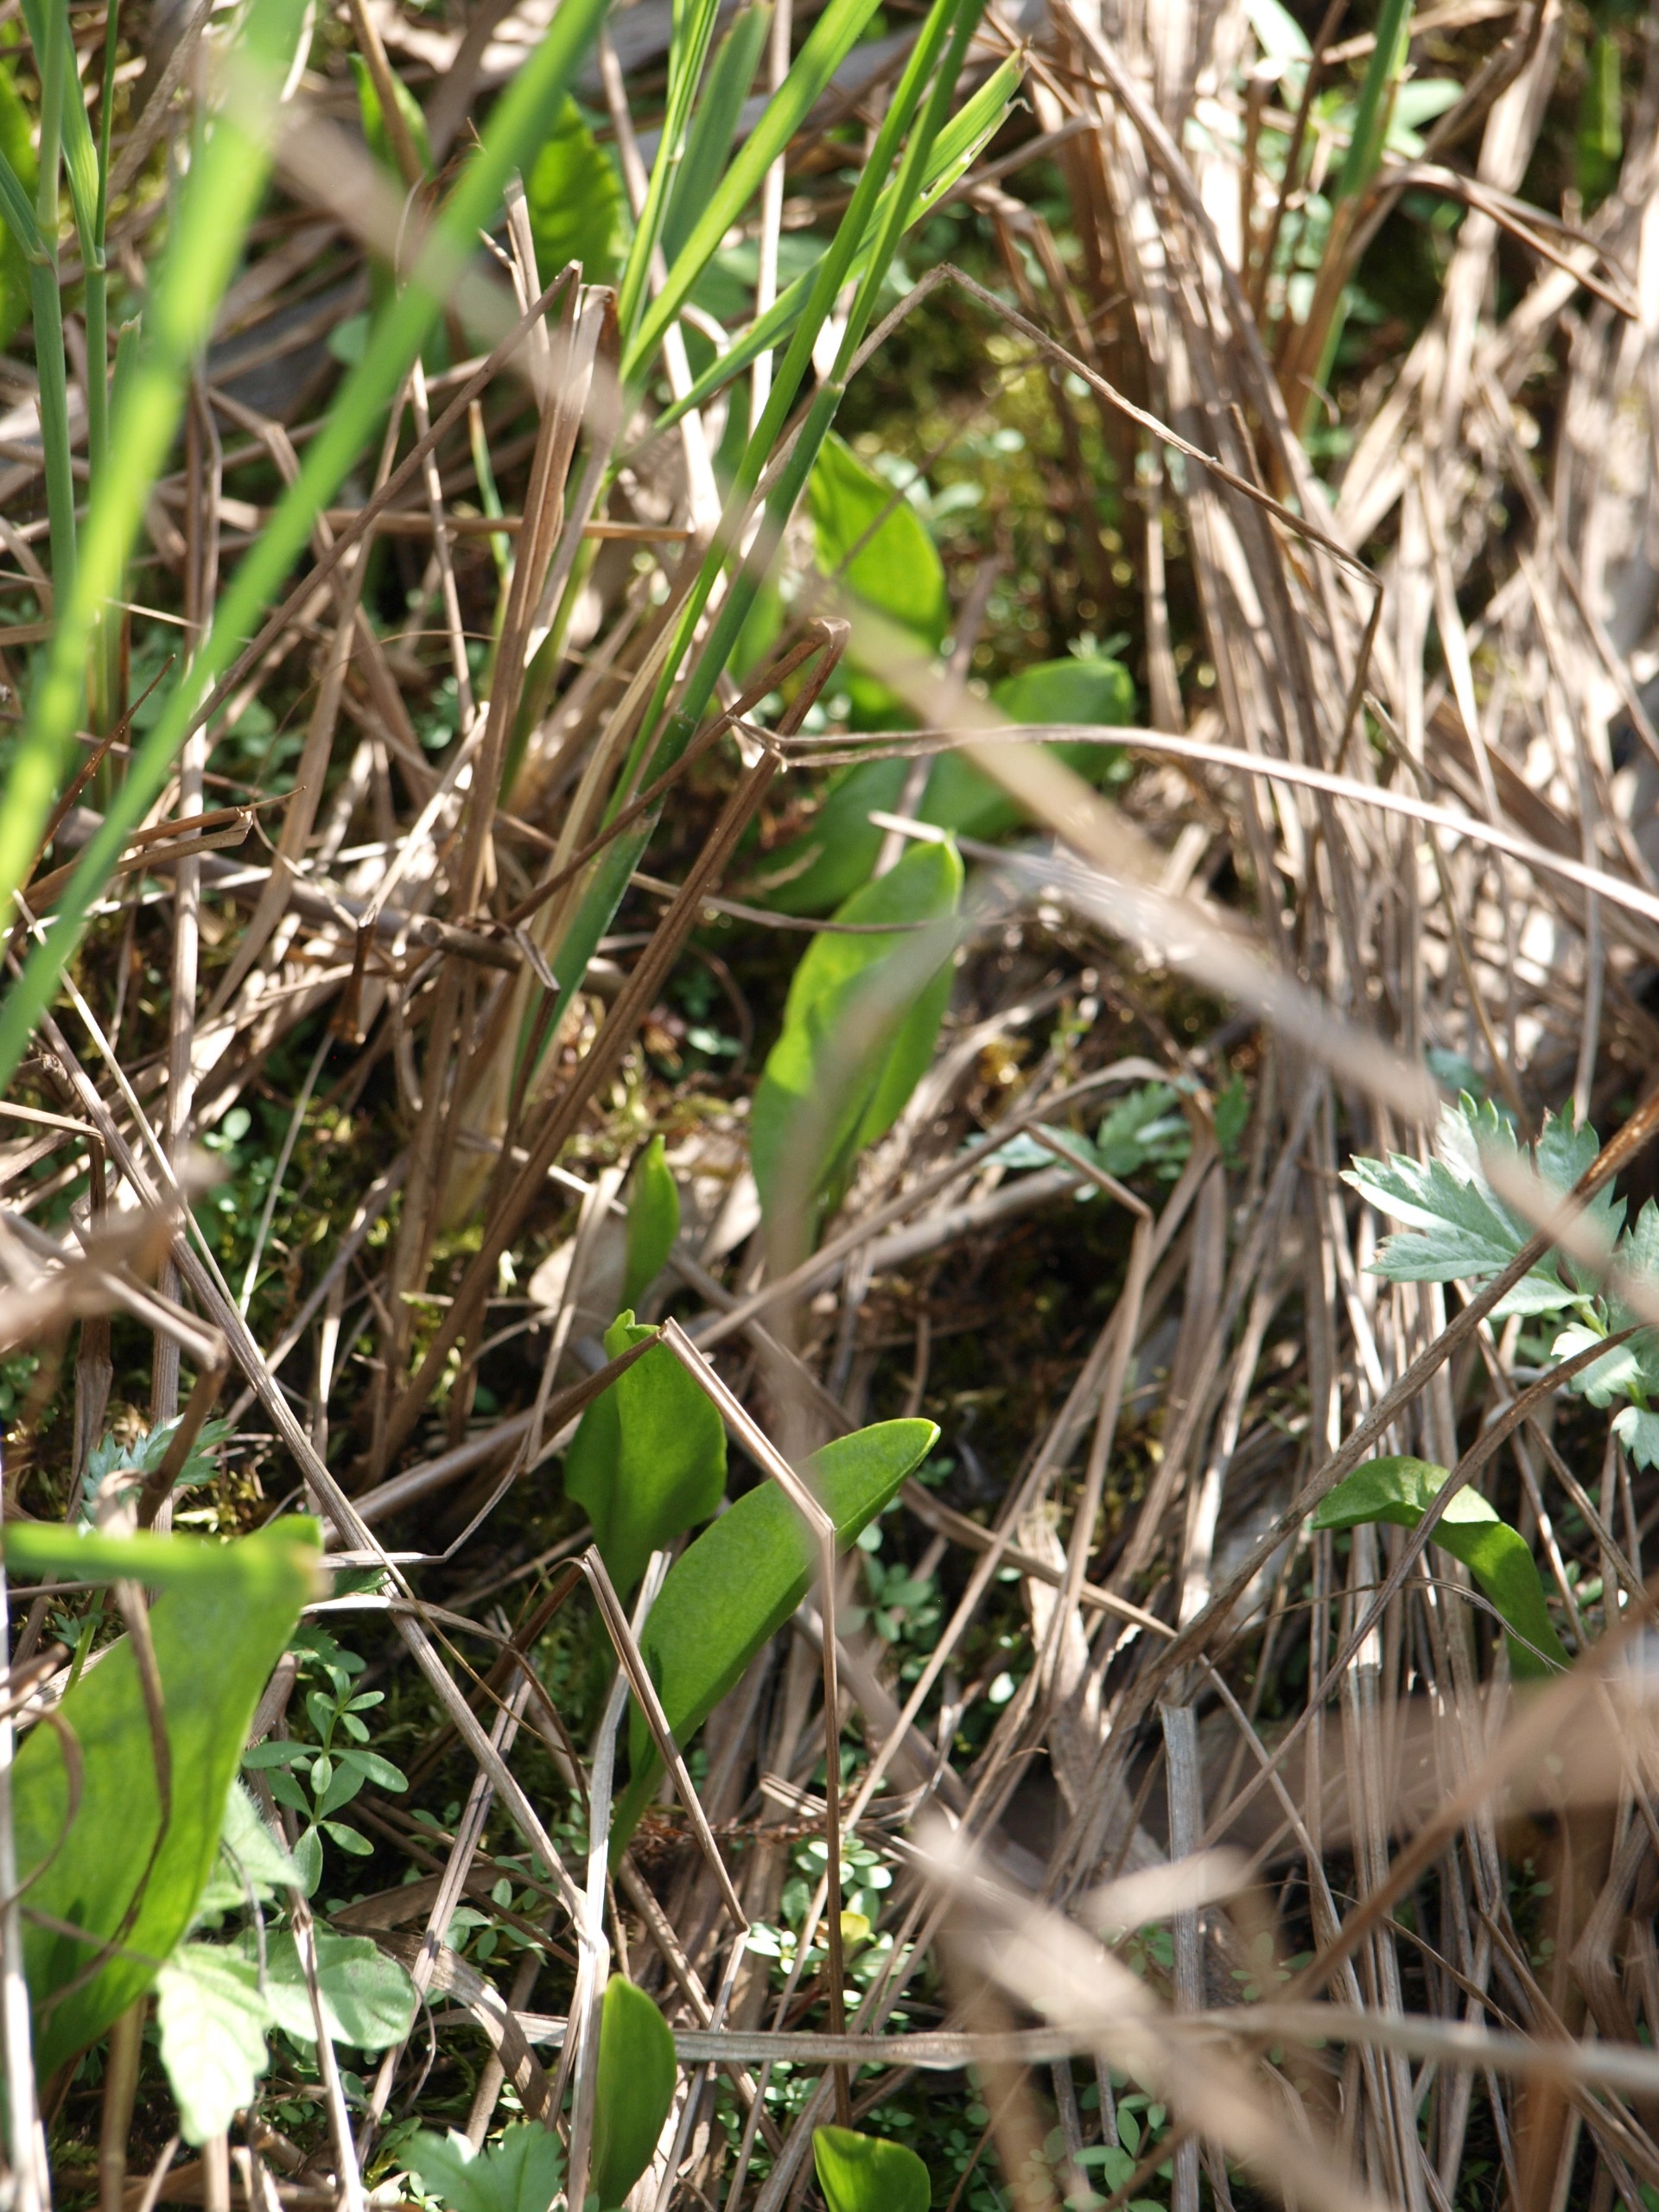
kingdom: Plantae
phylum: Tracheophyta
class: Polypodiopsida
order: Ophioglossales
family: Ophioglossaceae
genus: Ophioglossum
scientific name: Ophioglossum vulgatum
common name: Slangetunge
